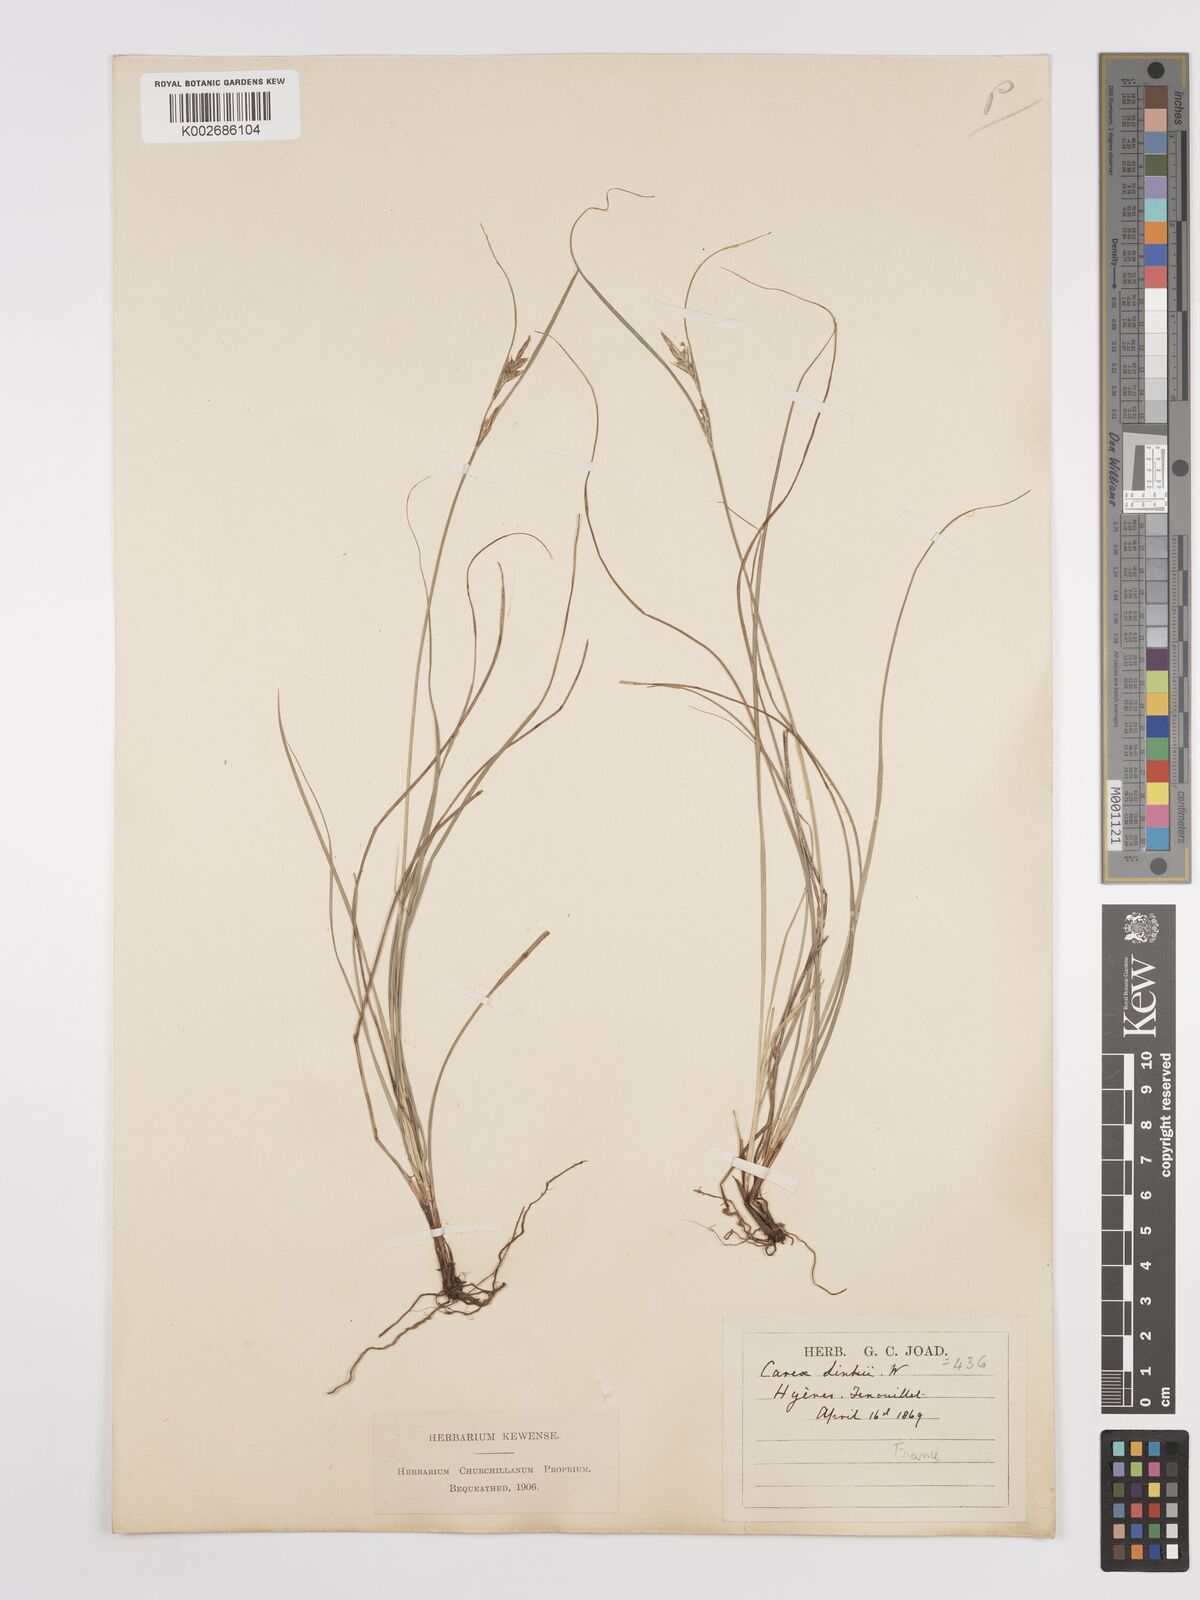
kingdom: Plantae
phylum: Tracheophyta
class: Liliopsida
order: Poales
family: Cyperaceae
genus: Carex
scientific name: Carex distachya
